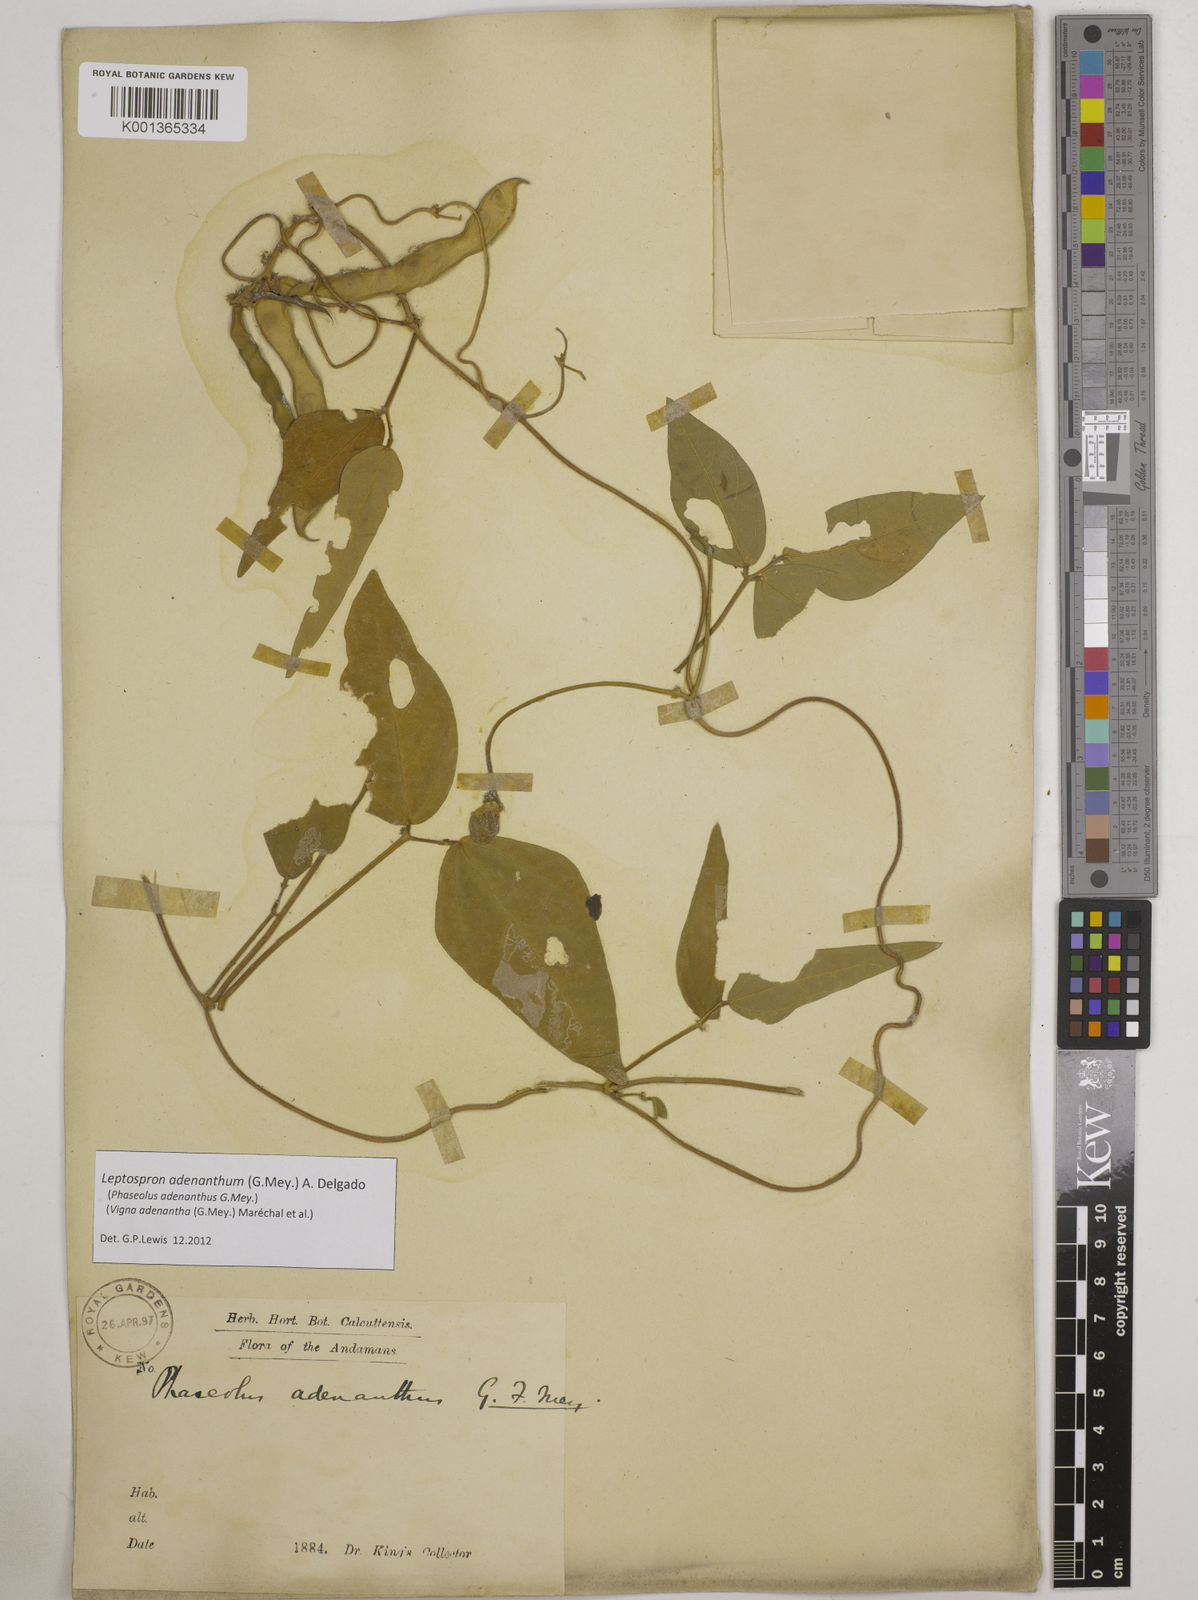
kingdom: Plantae
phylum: Tracheophyta
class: Magnoliopsida
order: Fabales
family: Fabaceae
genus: Leptospron
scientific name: Leptospron adenanthum
